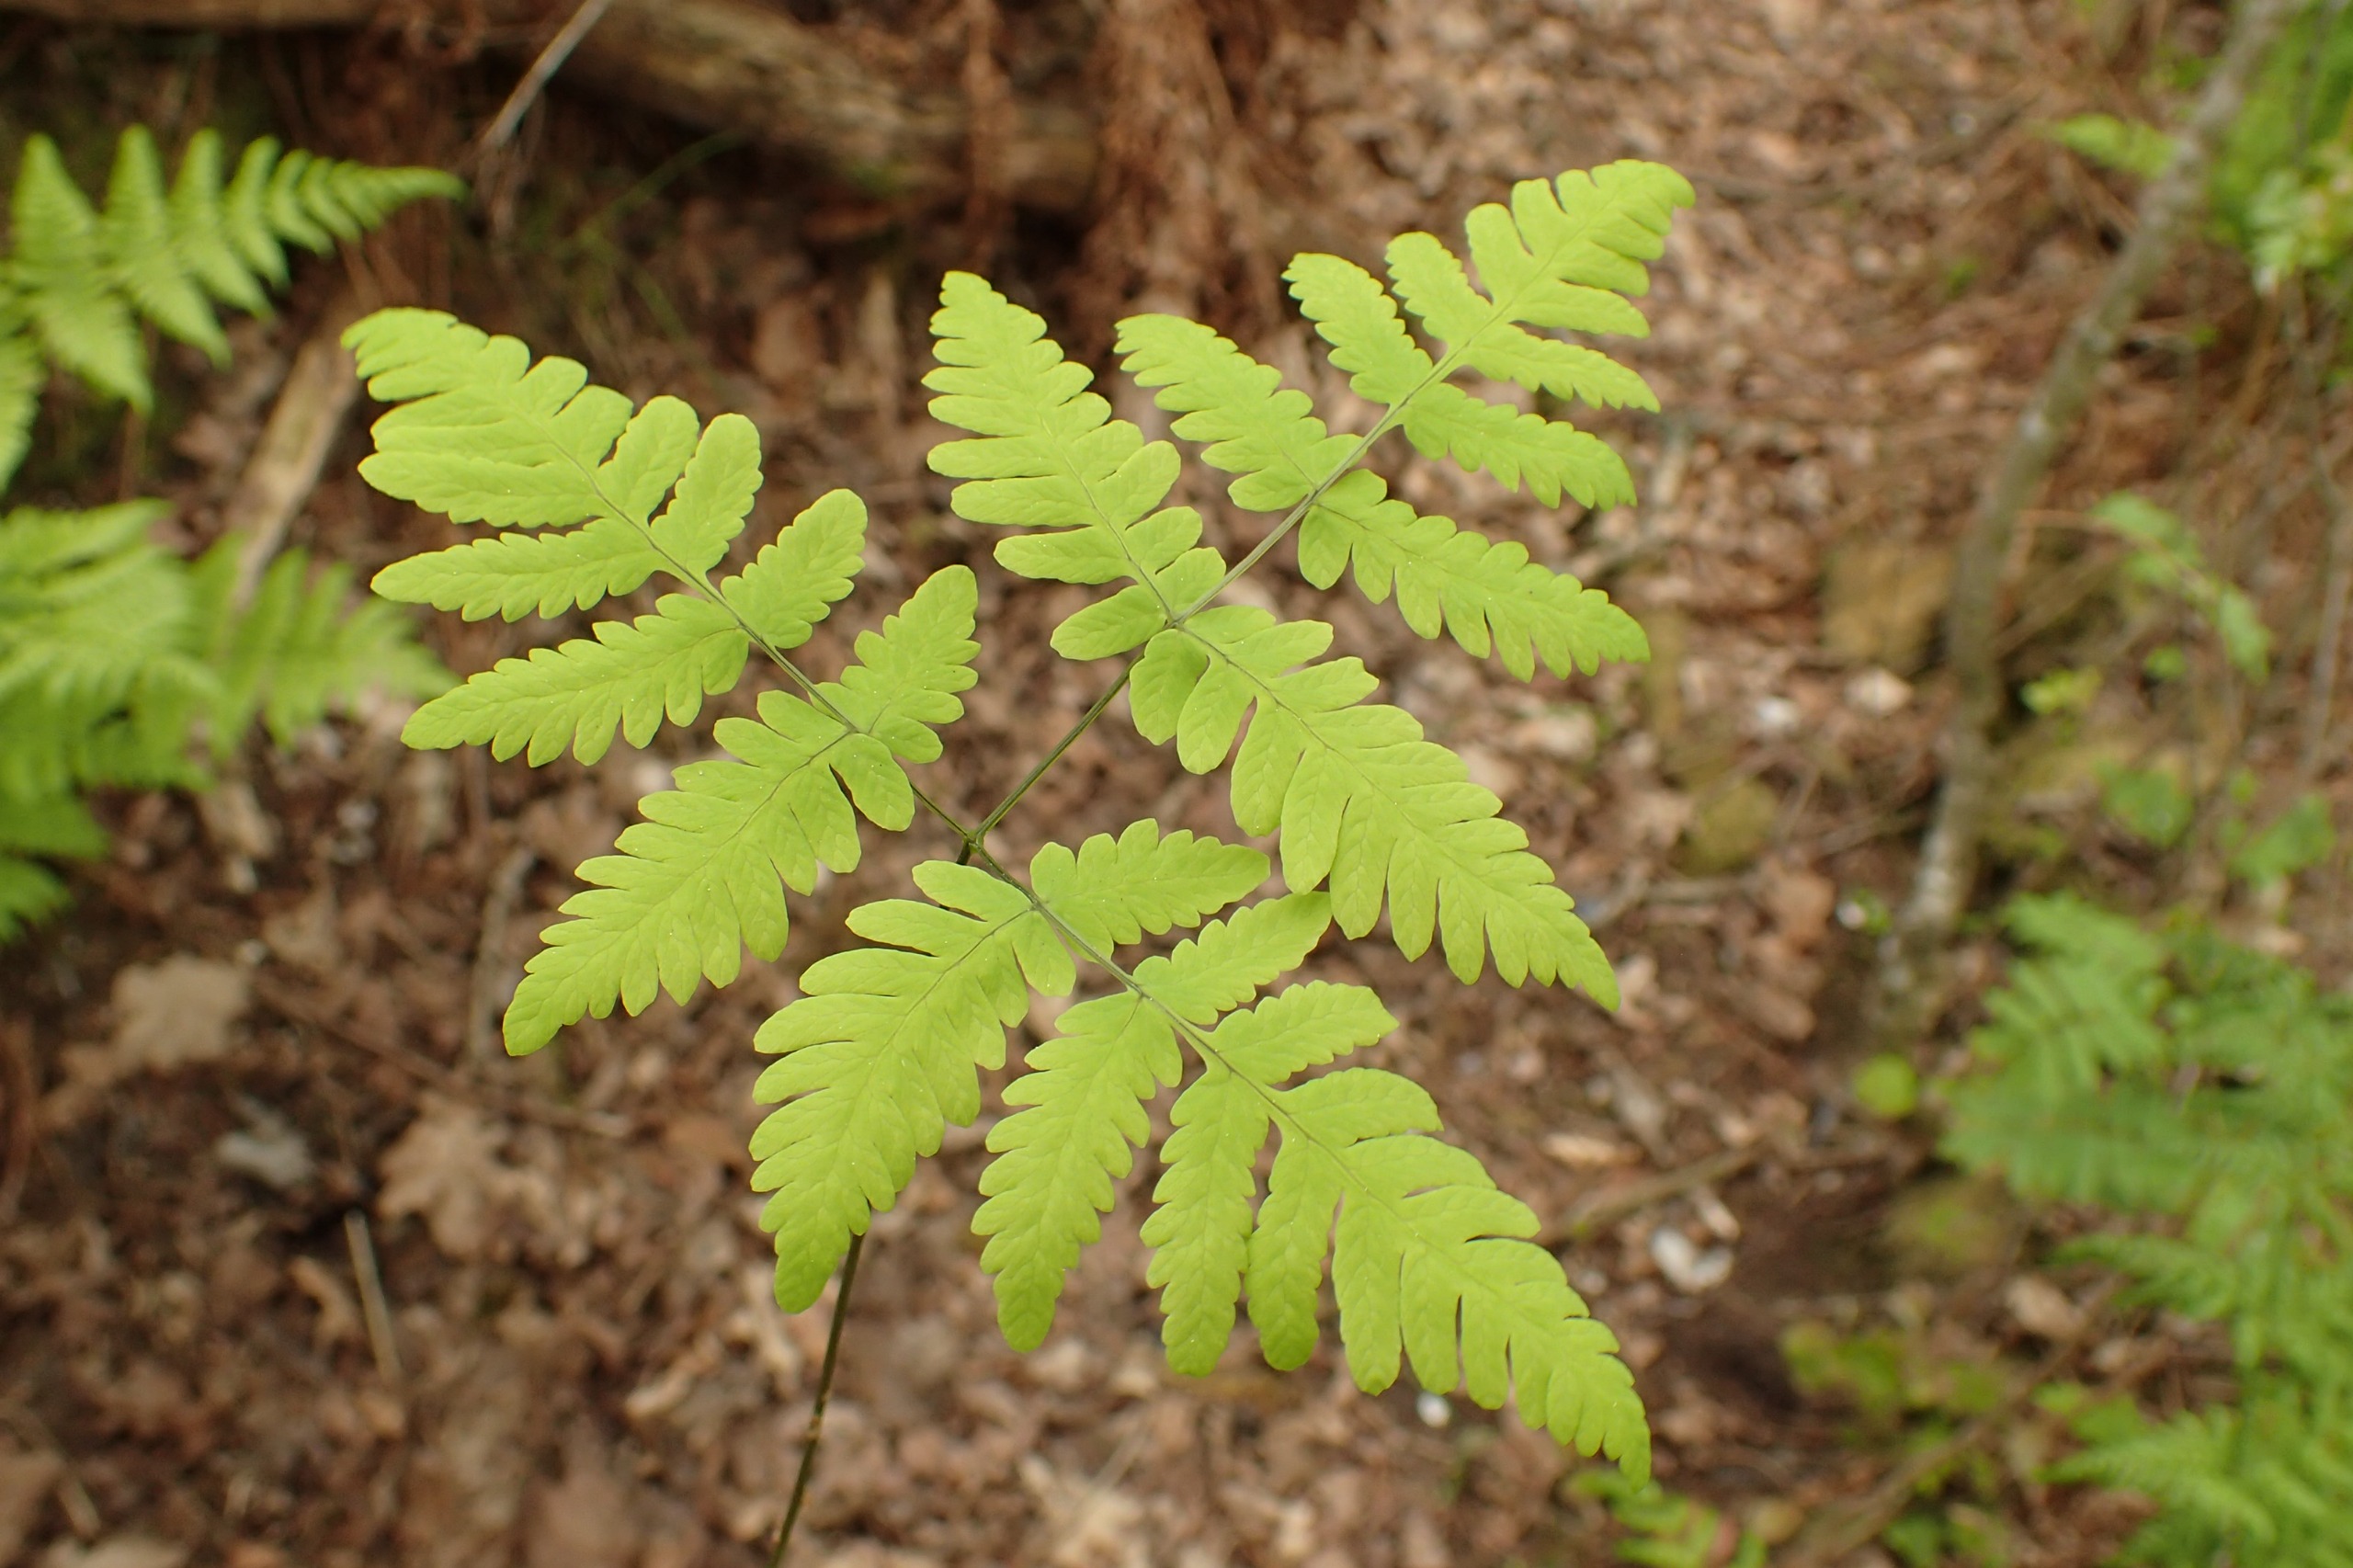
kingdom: Plantae
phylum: Tracheophyta
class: Polypodiopsida
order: Polypodiales
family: Cystopteridaceae
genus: Gymnocarpium
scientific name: Gymnocarpium dryopteris
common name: Tredelt egebregne
